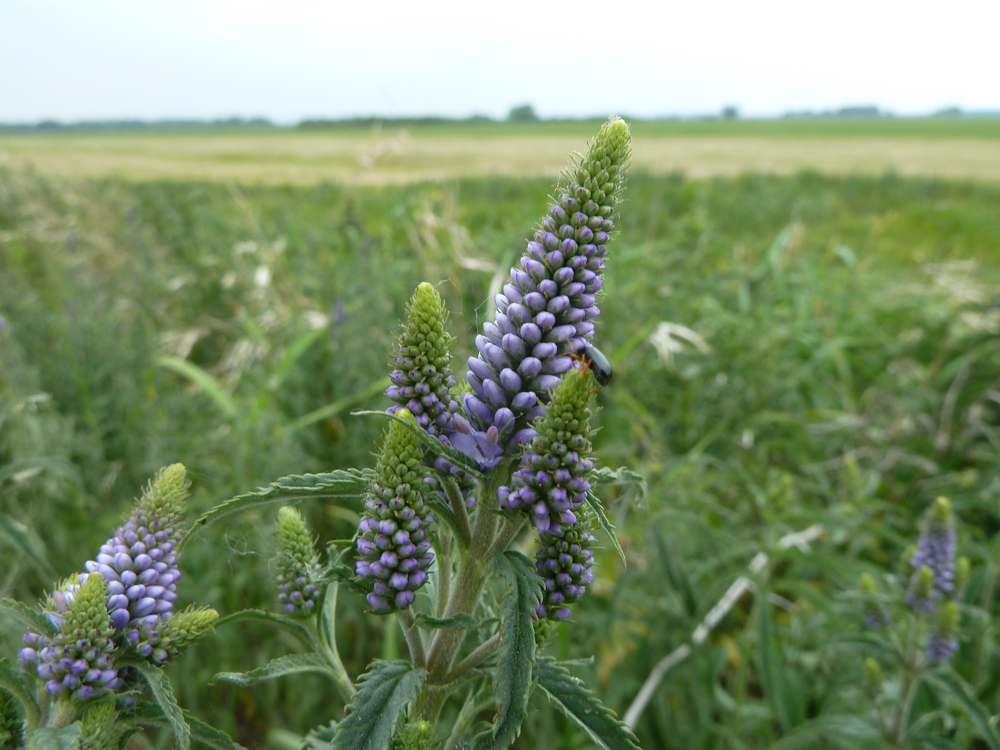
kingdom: Plantae
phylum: Tracheophyta
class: Magnoliopsida
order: Lamiales
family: Plantaginaceae
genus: Veronica
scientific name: Veronica maritima
